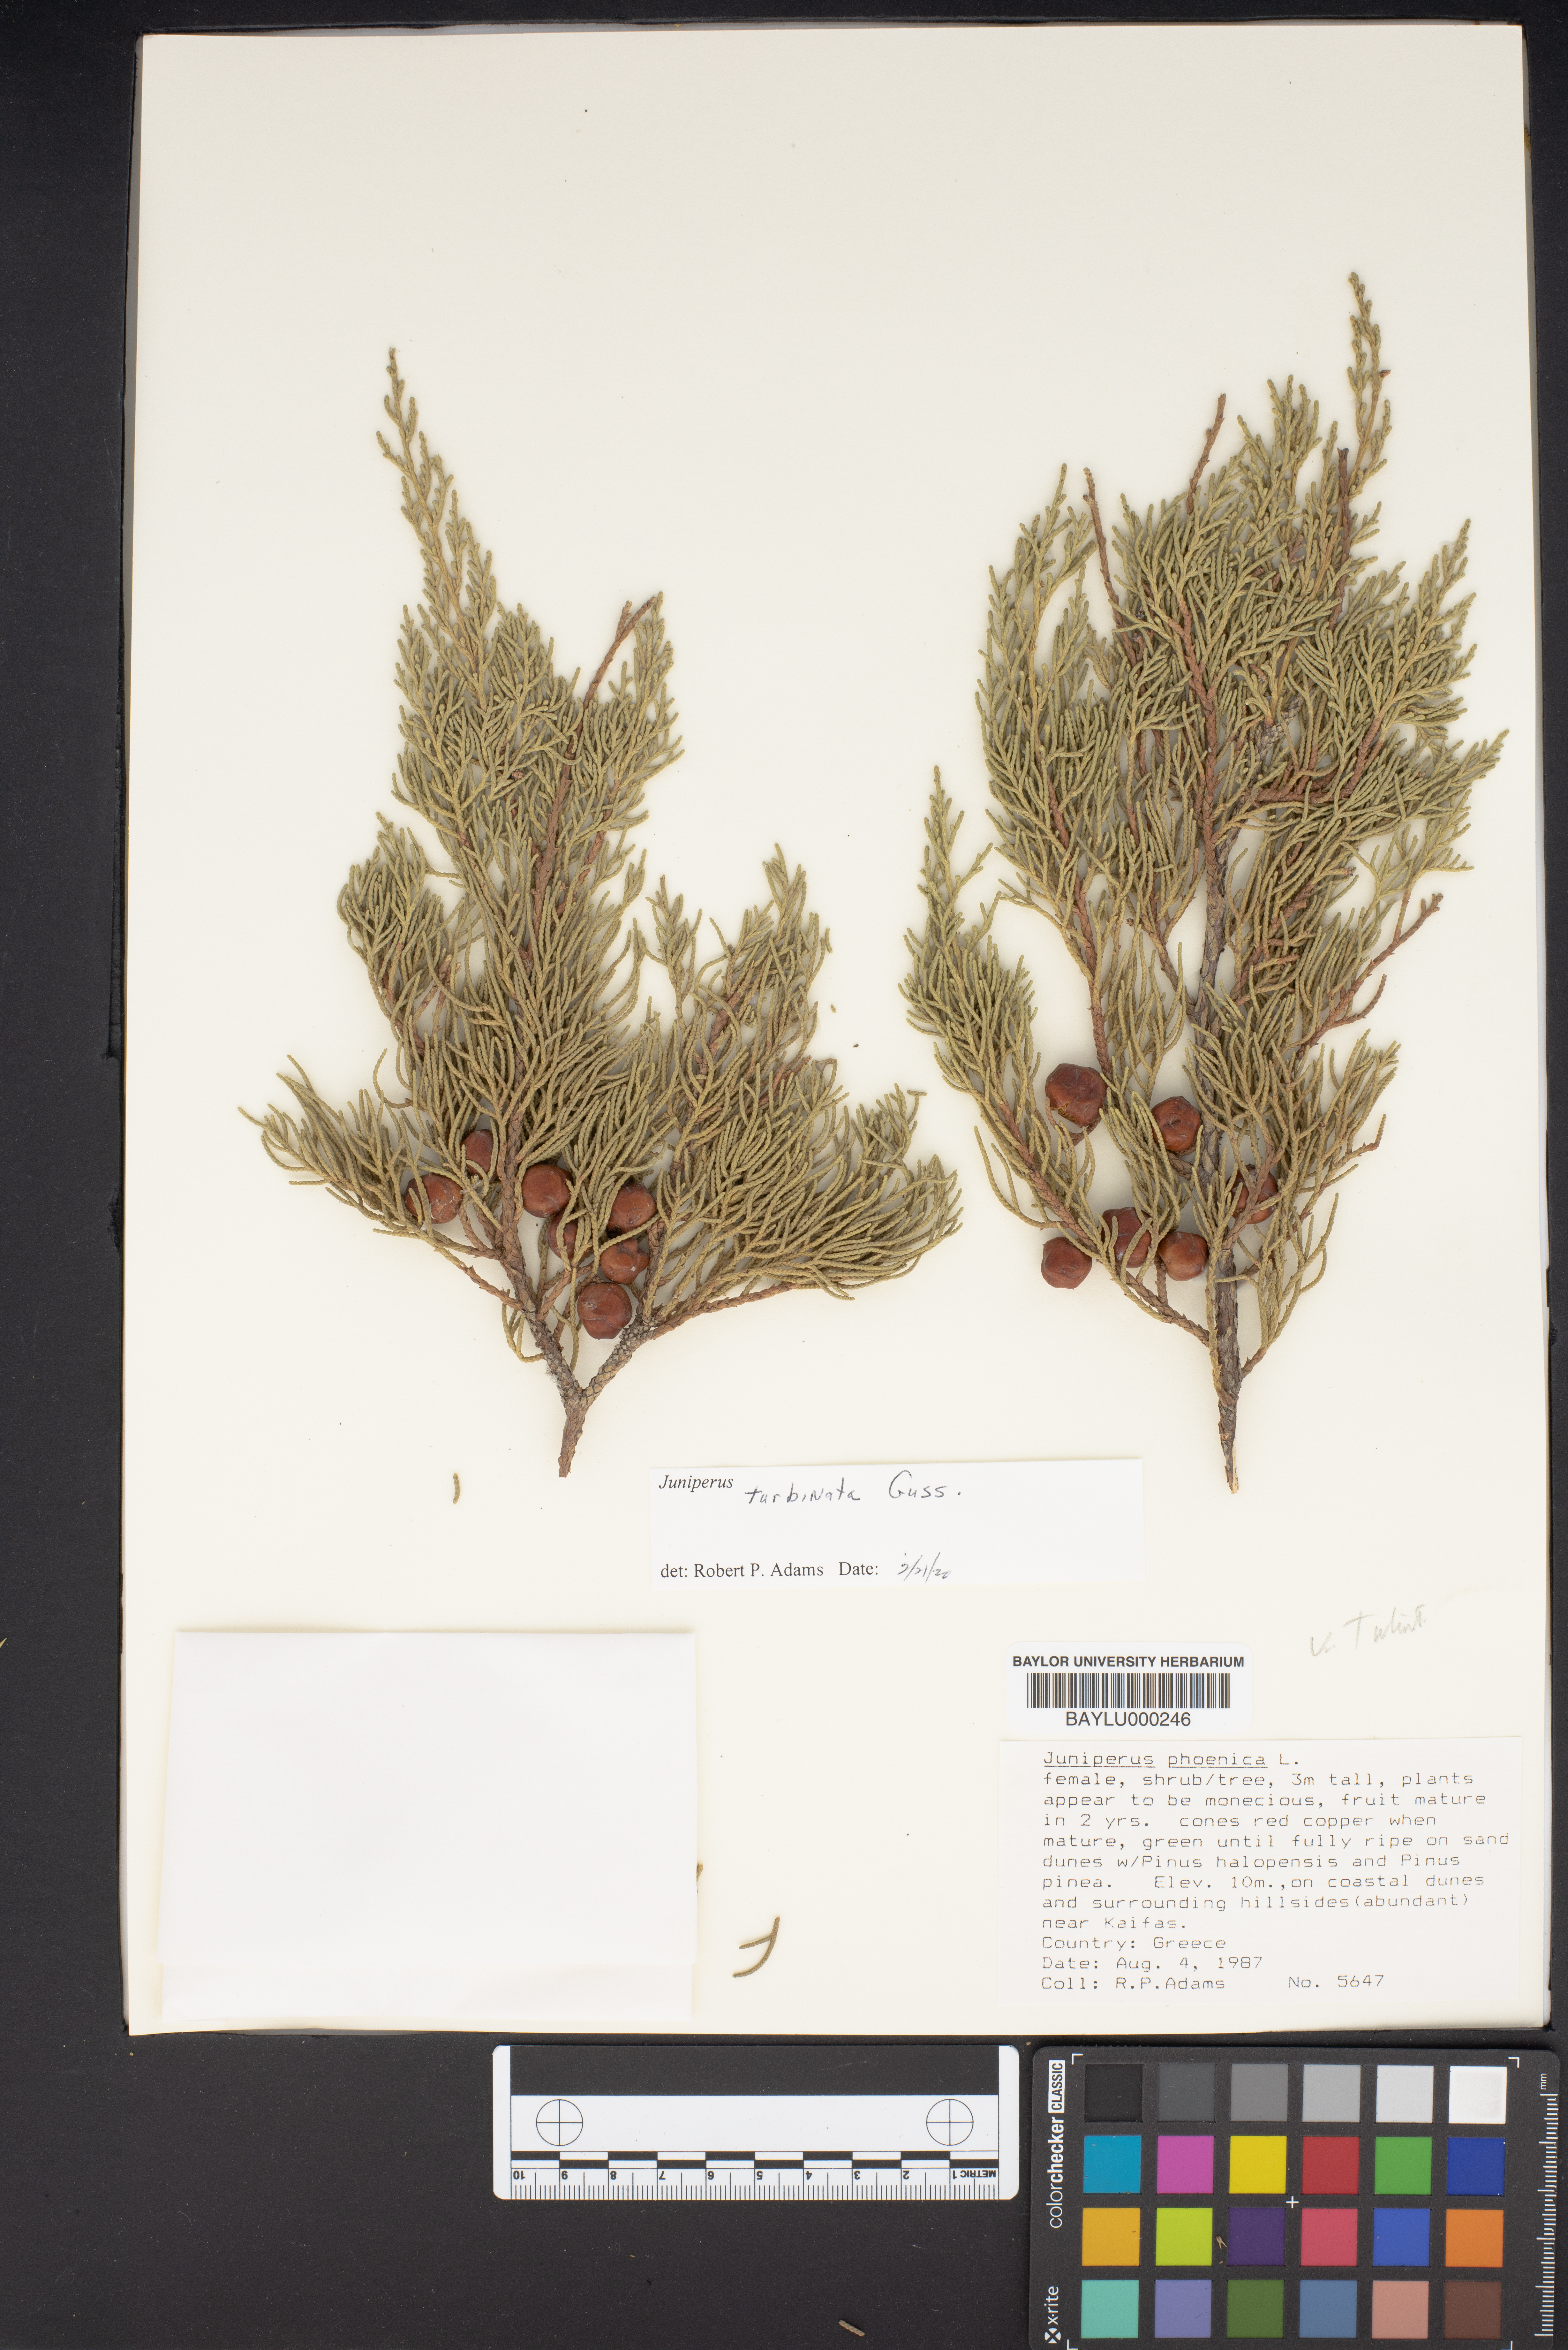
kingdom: Plantae
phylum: Tracheophyta
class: Pinopsida
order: Pinales
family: Cupressaceae
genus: Juniperus
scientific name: Juniperus phoenicea
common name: Phoenician juniper
